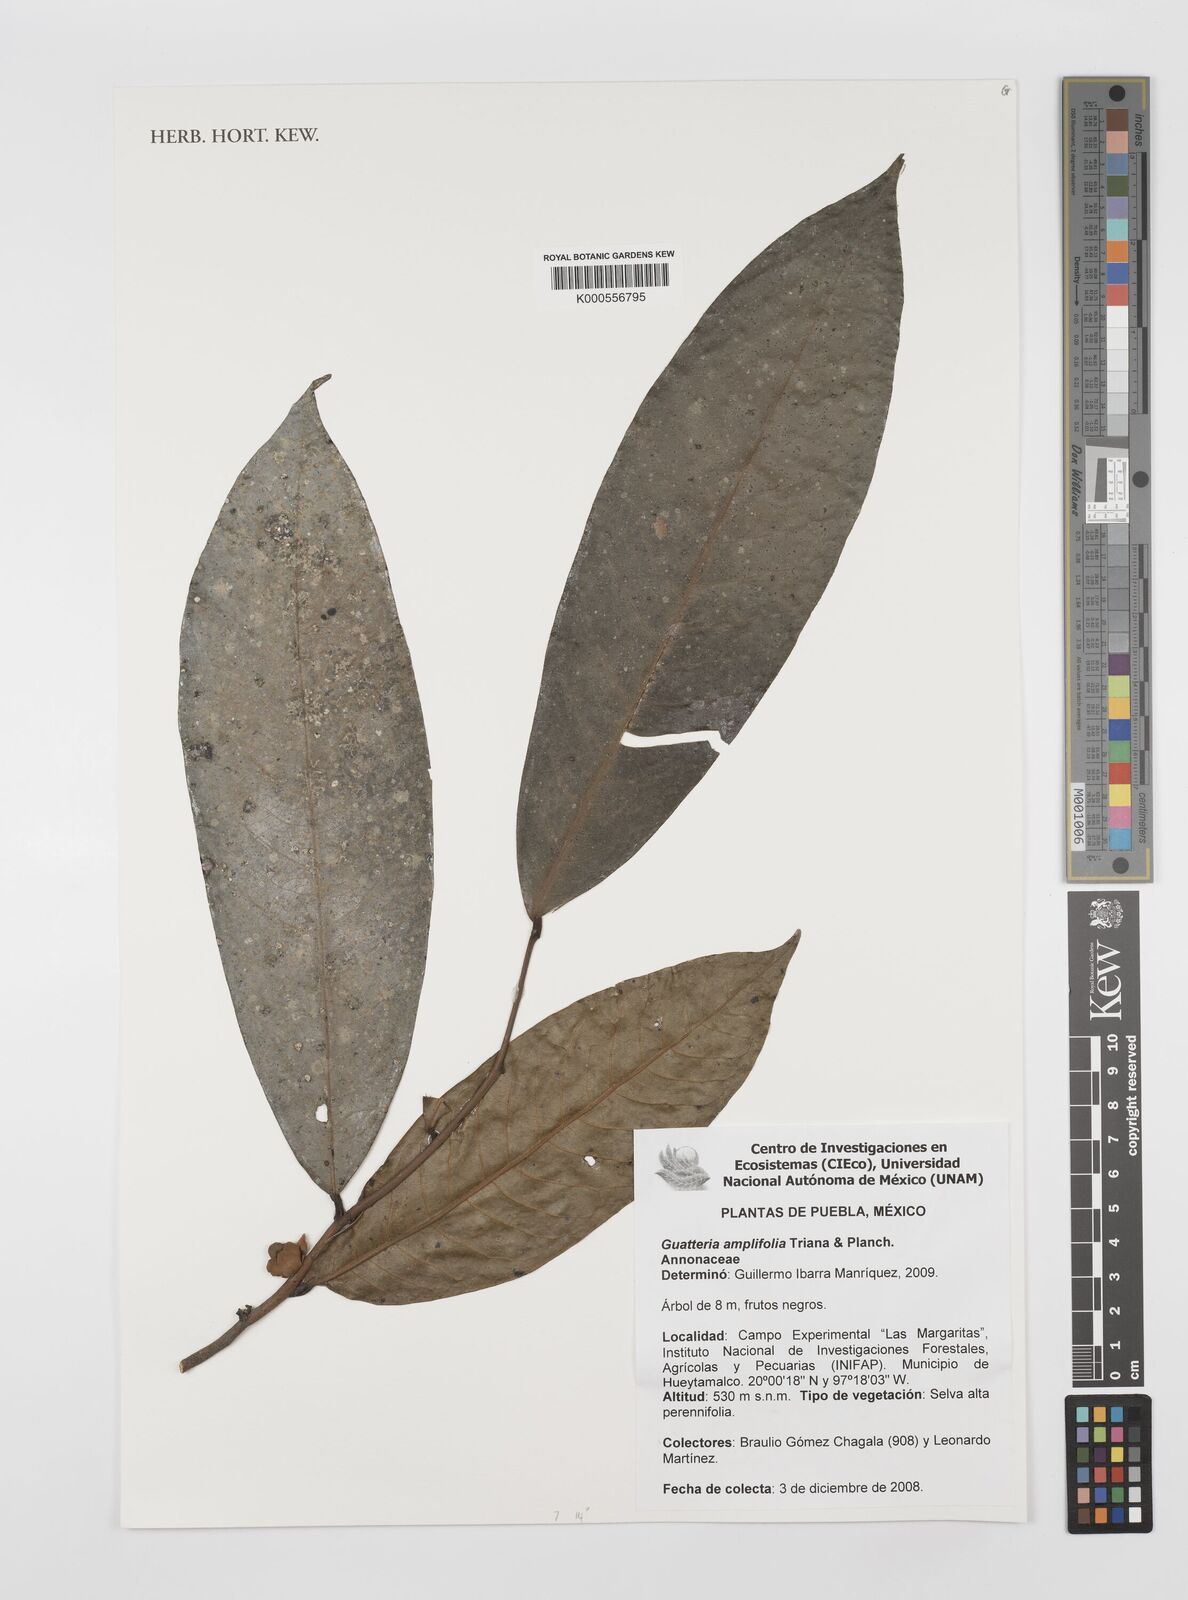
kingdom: Plantae
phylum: Tracheophyta
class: Magnoliopsida
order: Magnoliales
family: Annonaceae
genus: Guatteria
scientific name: Guatteria amplifolia
